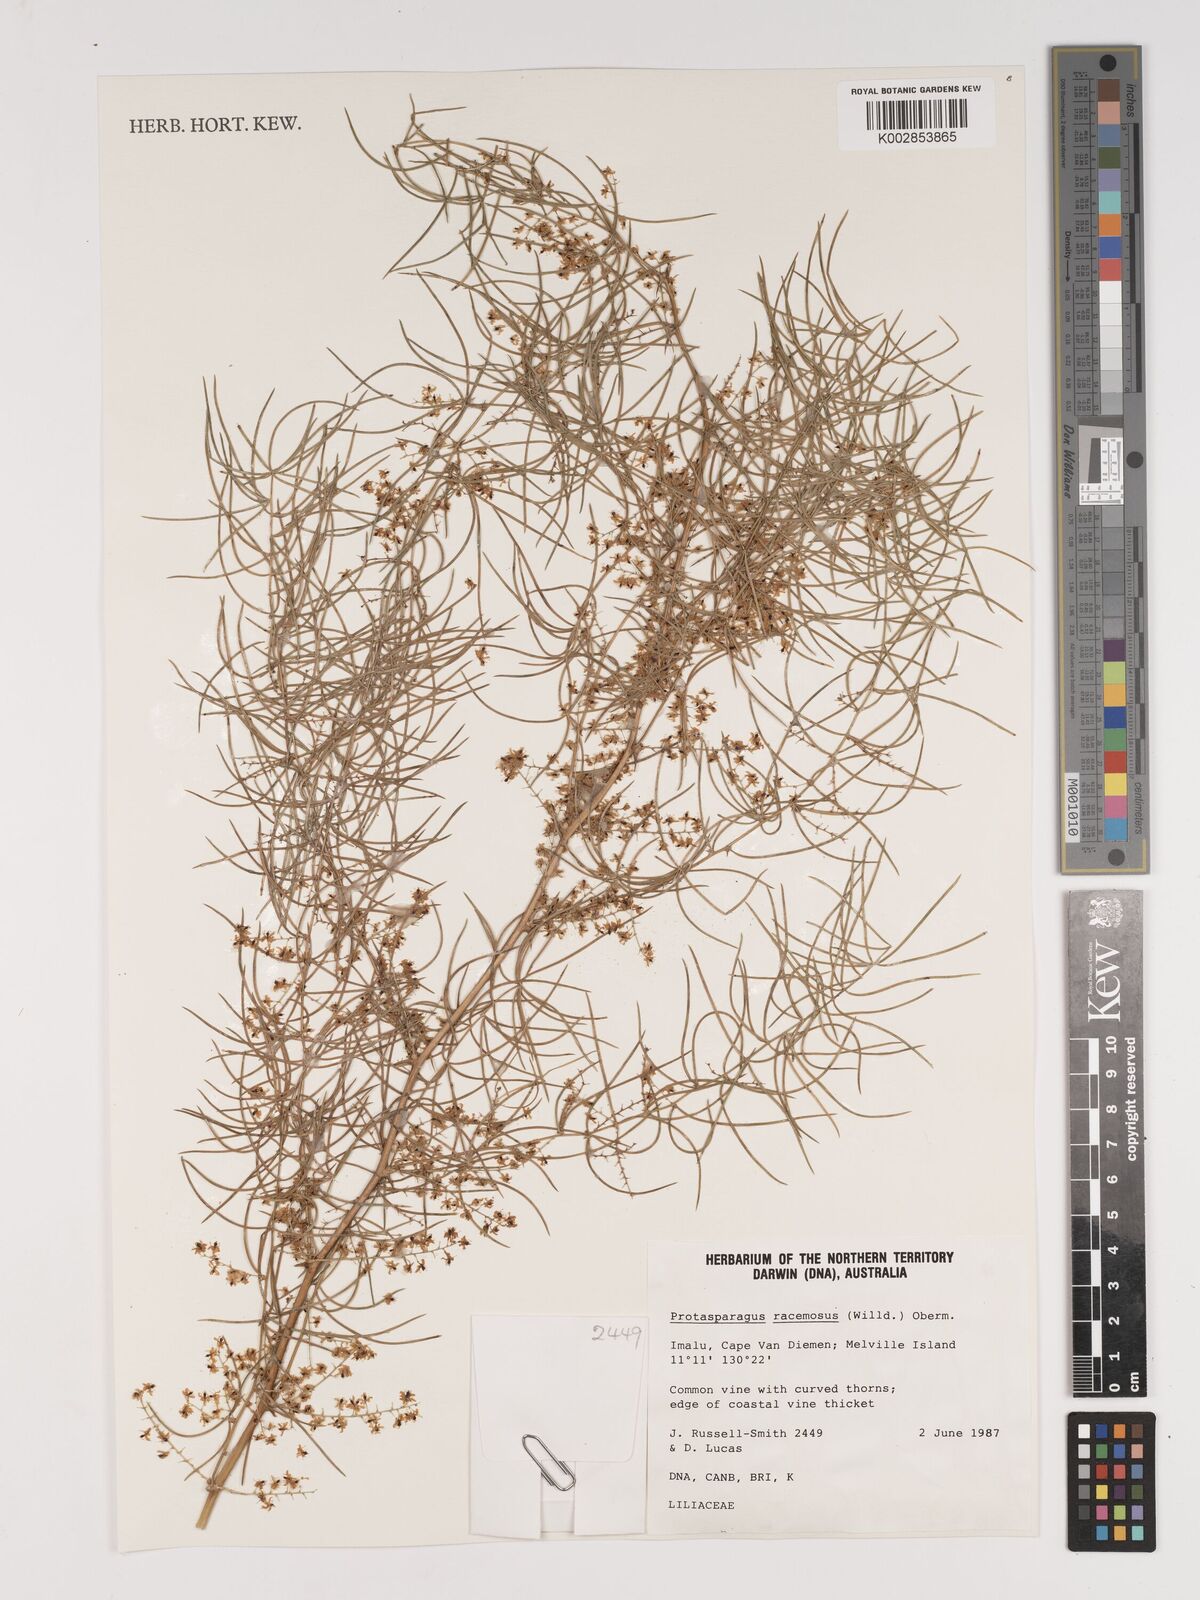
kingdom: Plantae
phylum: Tracheophyta
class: Liliopsida
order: Asparagales
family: Asparagaceae
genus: Asparagus
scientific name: Asparagus racemosus
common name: Asparagus-fern
